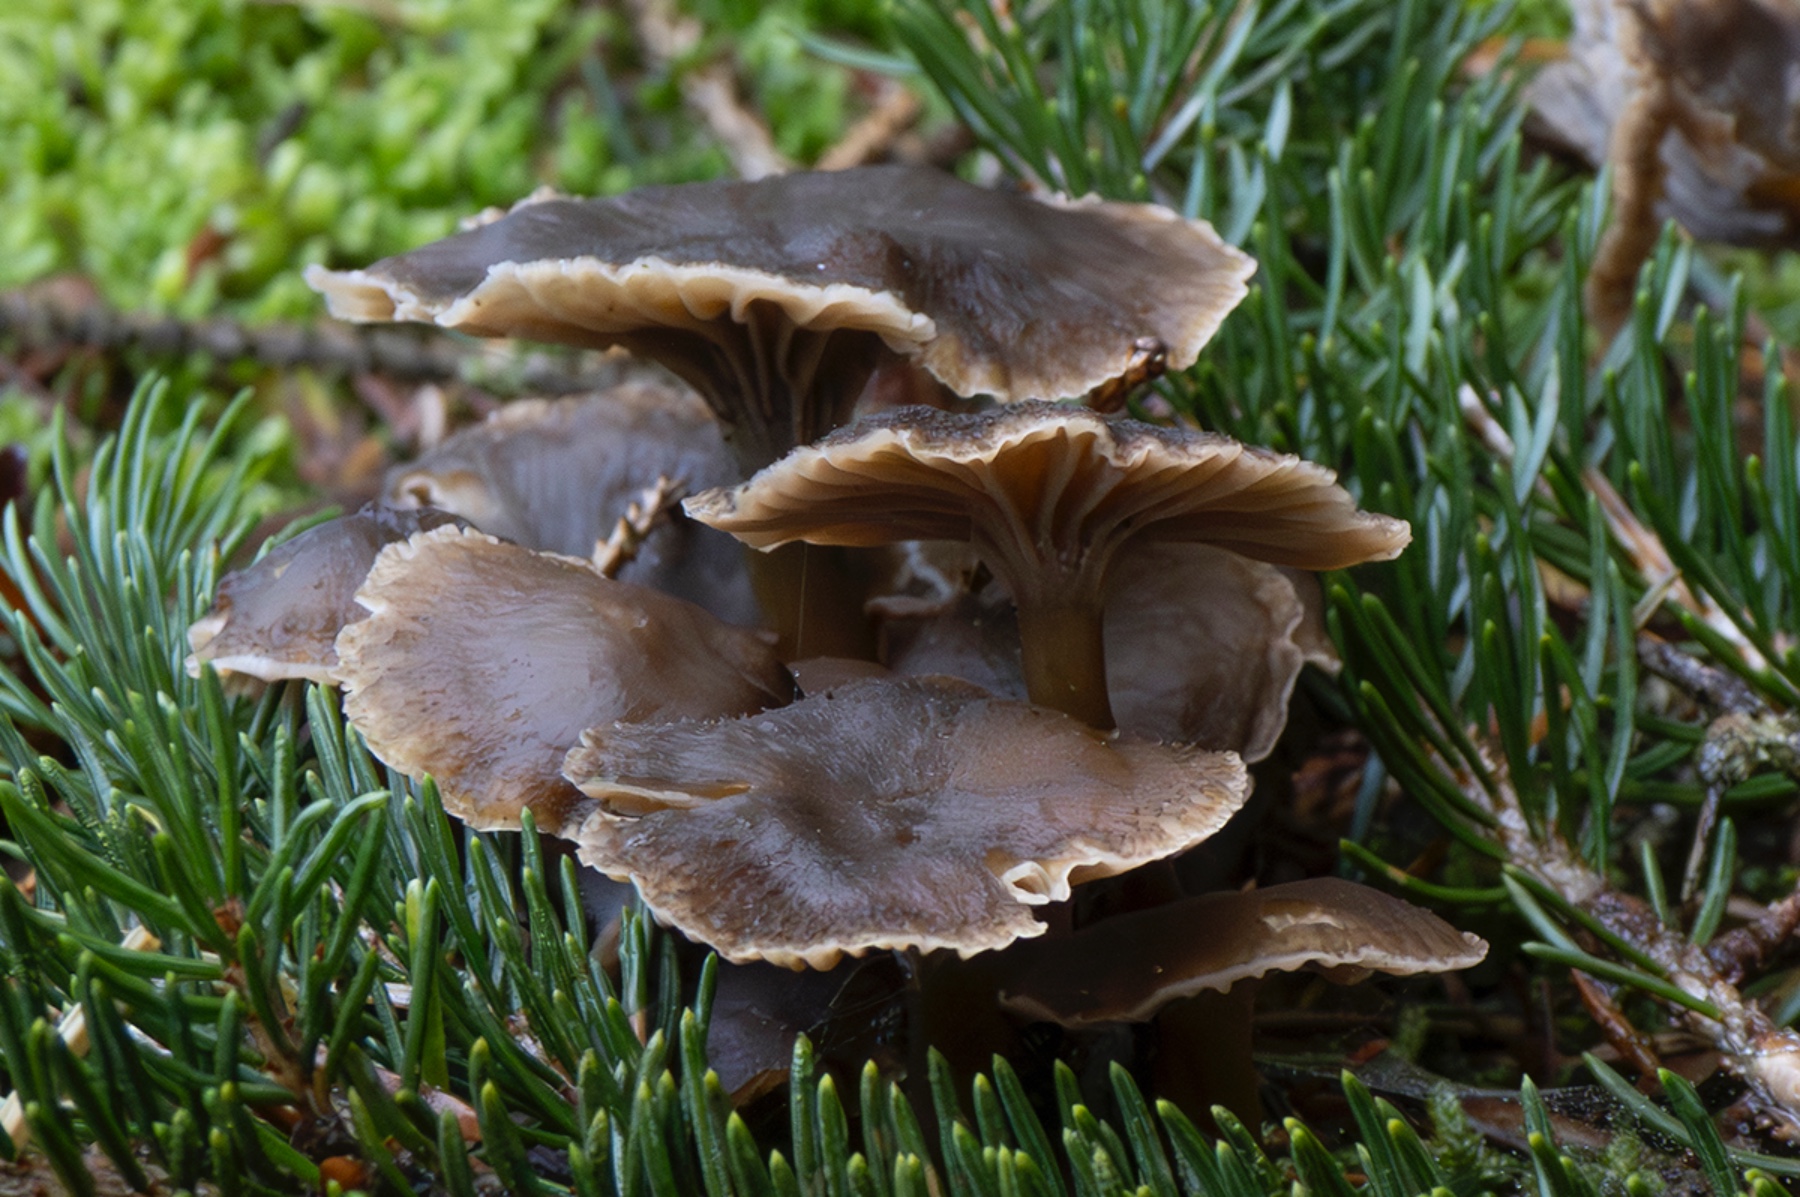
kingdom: Fungi
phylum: Basidiomycota
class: Agaricomycetes
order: Cantharellales
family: Hydnaceae
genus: Craterellus
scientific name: Craterellus tubaeformis
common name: tragt-kantarel
